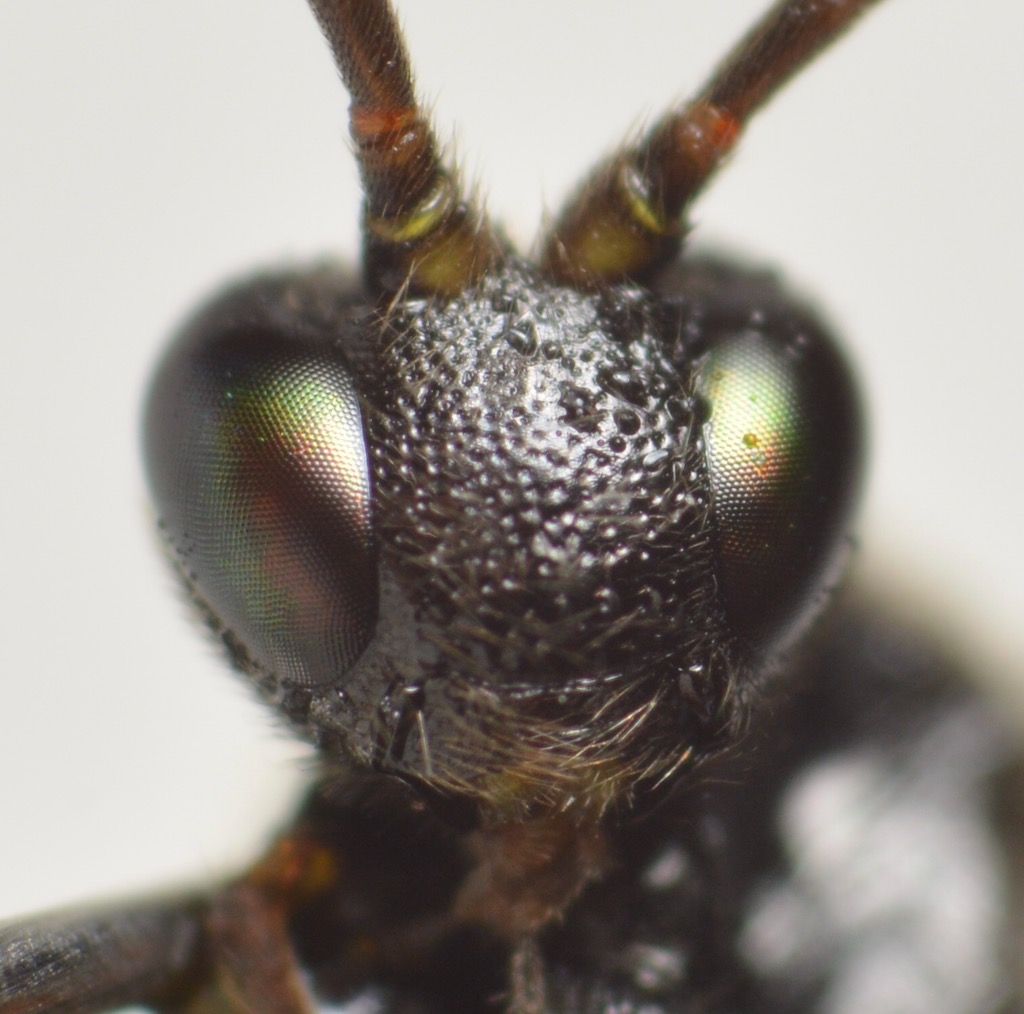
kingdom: Animalia
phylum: Arthropoda
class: Insecta
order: Hymenoptera
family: Ichneumonidae
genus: Colpotrochia
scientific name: Colpotrochia cincta
